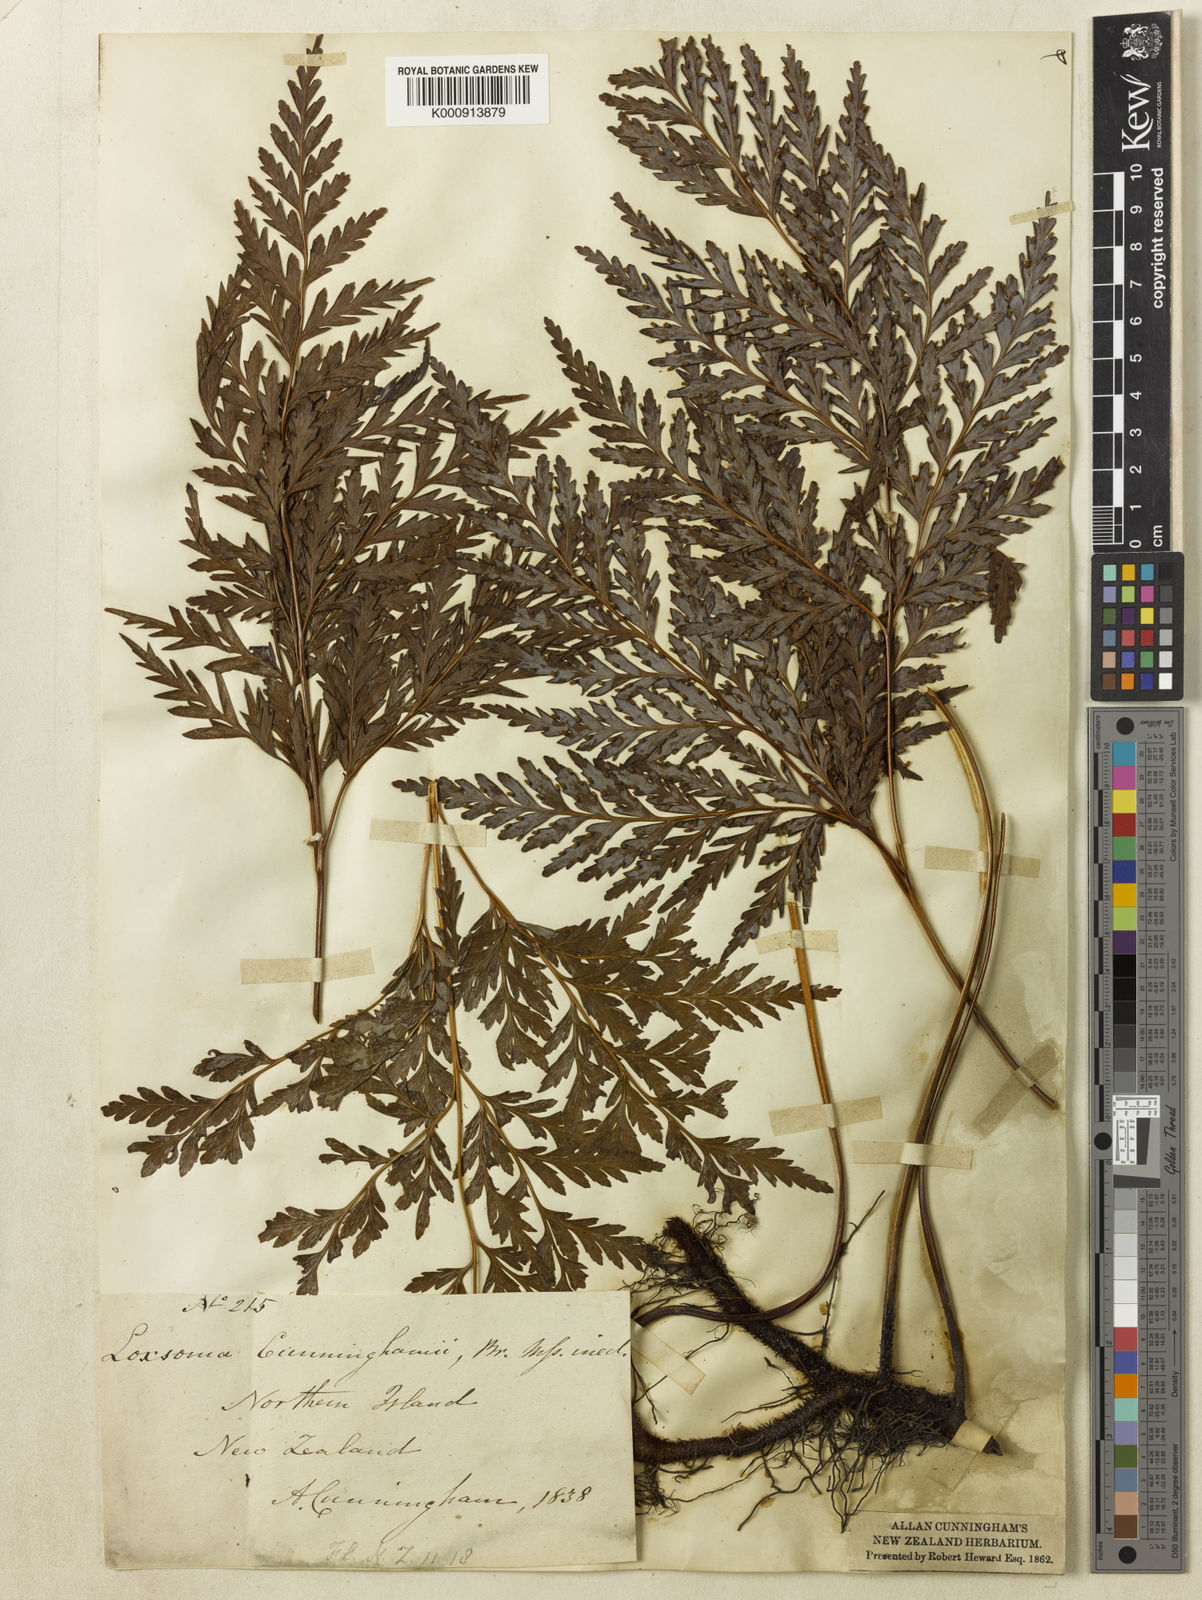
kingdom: Plantae
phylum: Tracheophyta
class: Polypodiopsida
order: Cyatheales
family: Cyatheaceae
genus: Loxsoma
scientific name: Loxsoma cunninghamii
